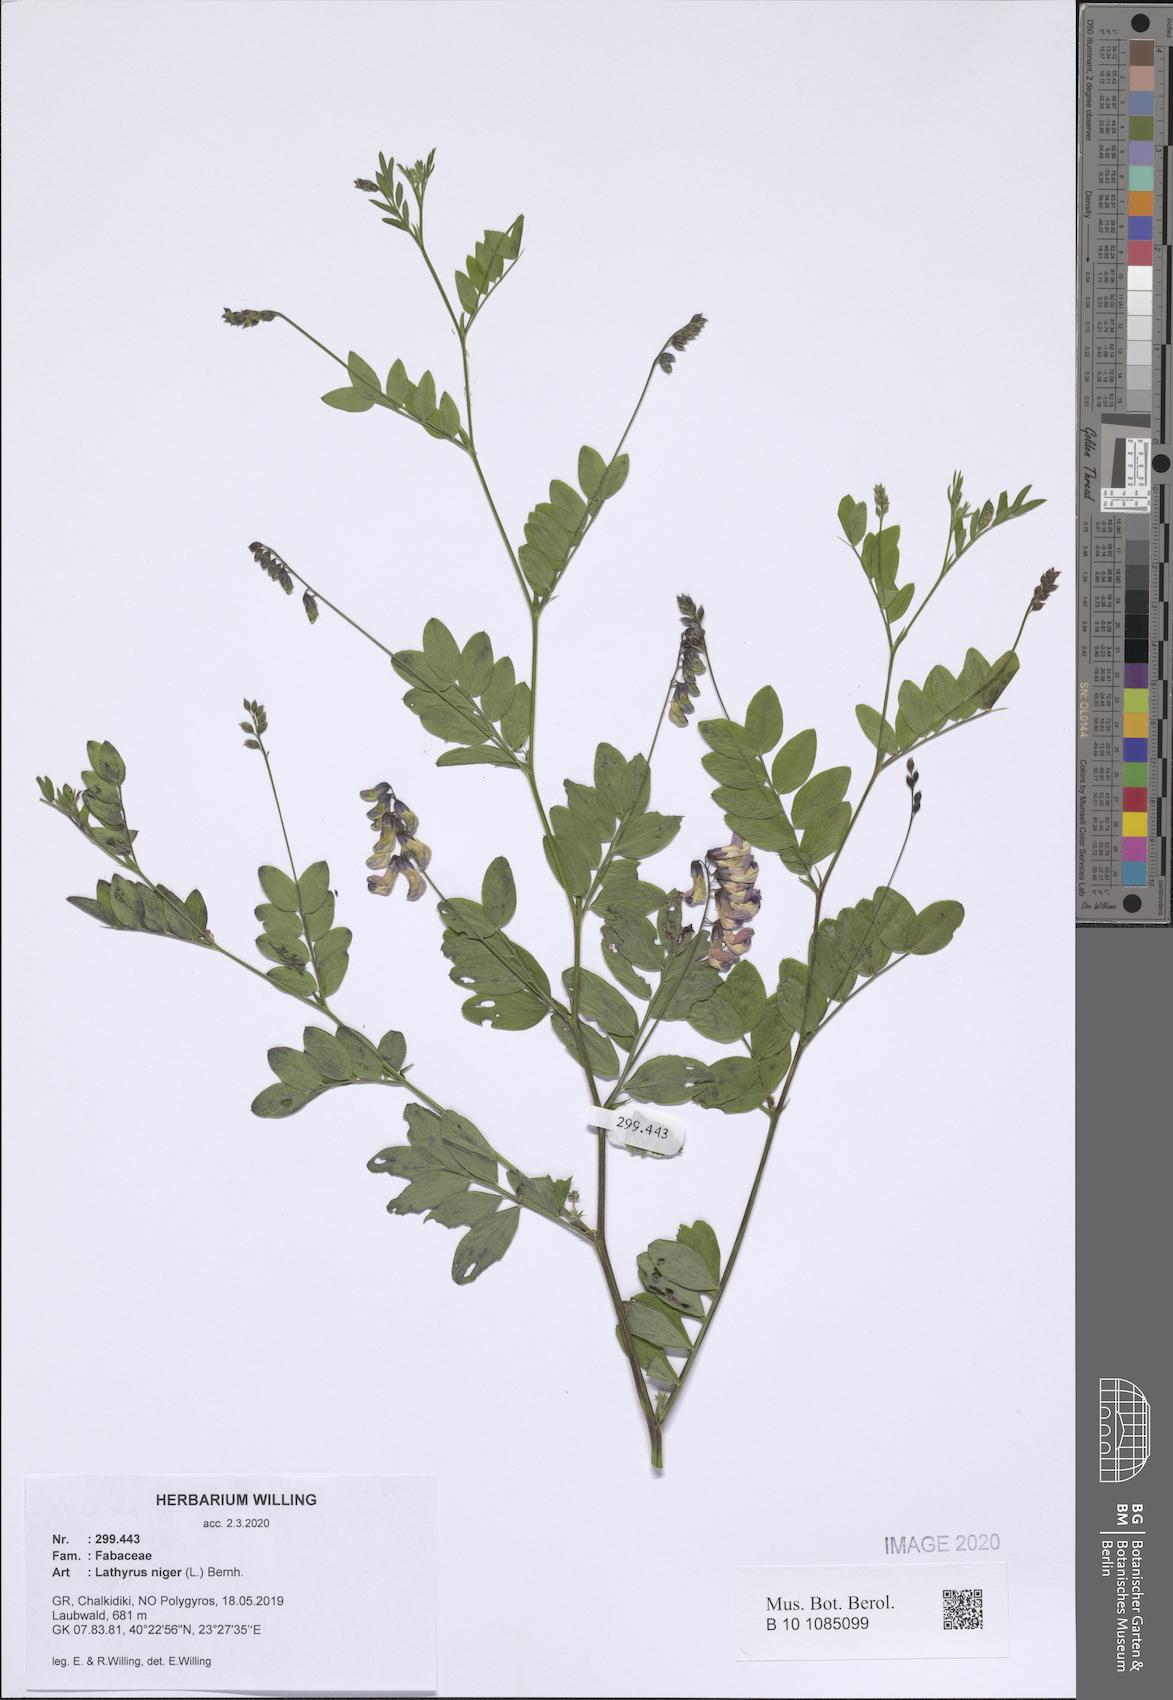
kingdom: Plantae
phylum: Tracheophyta
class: Magnoliopsida
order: Fabales
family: Fabaceae
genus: Lathyrus
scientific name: Lathyrus niger
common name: Black pea
